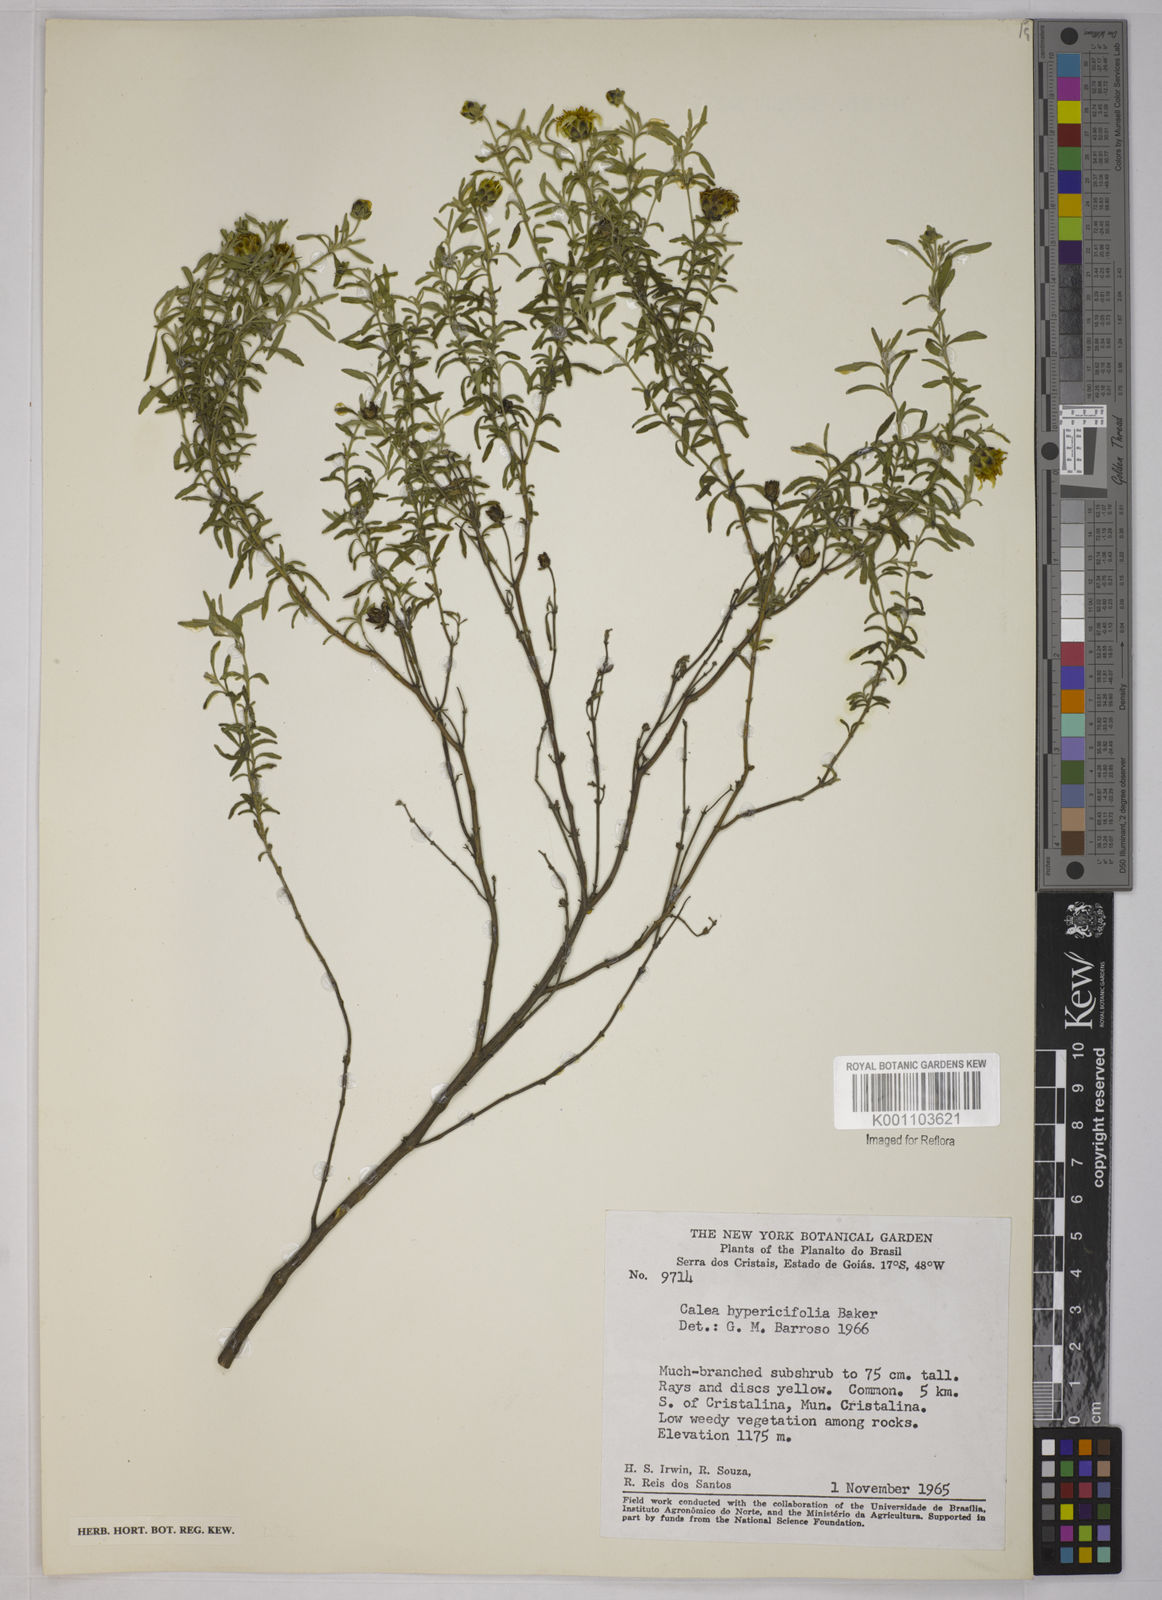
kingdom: Plantae
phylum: Tracheophyta
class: Magnoliopsida
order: Asterales
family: Asteraceae
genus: Calea
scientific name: Calea hypericifolia
